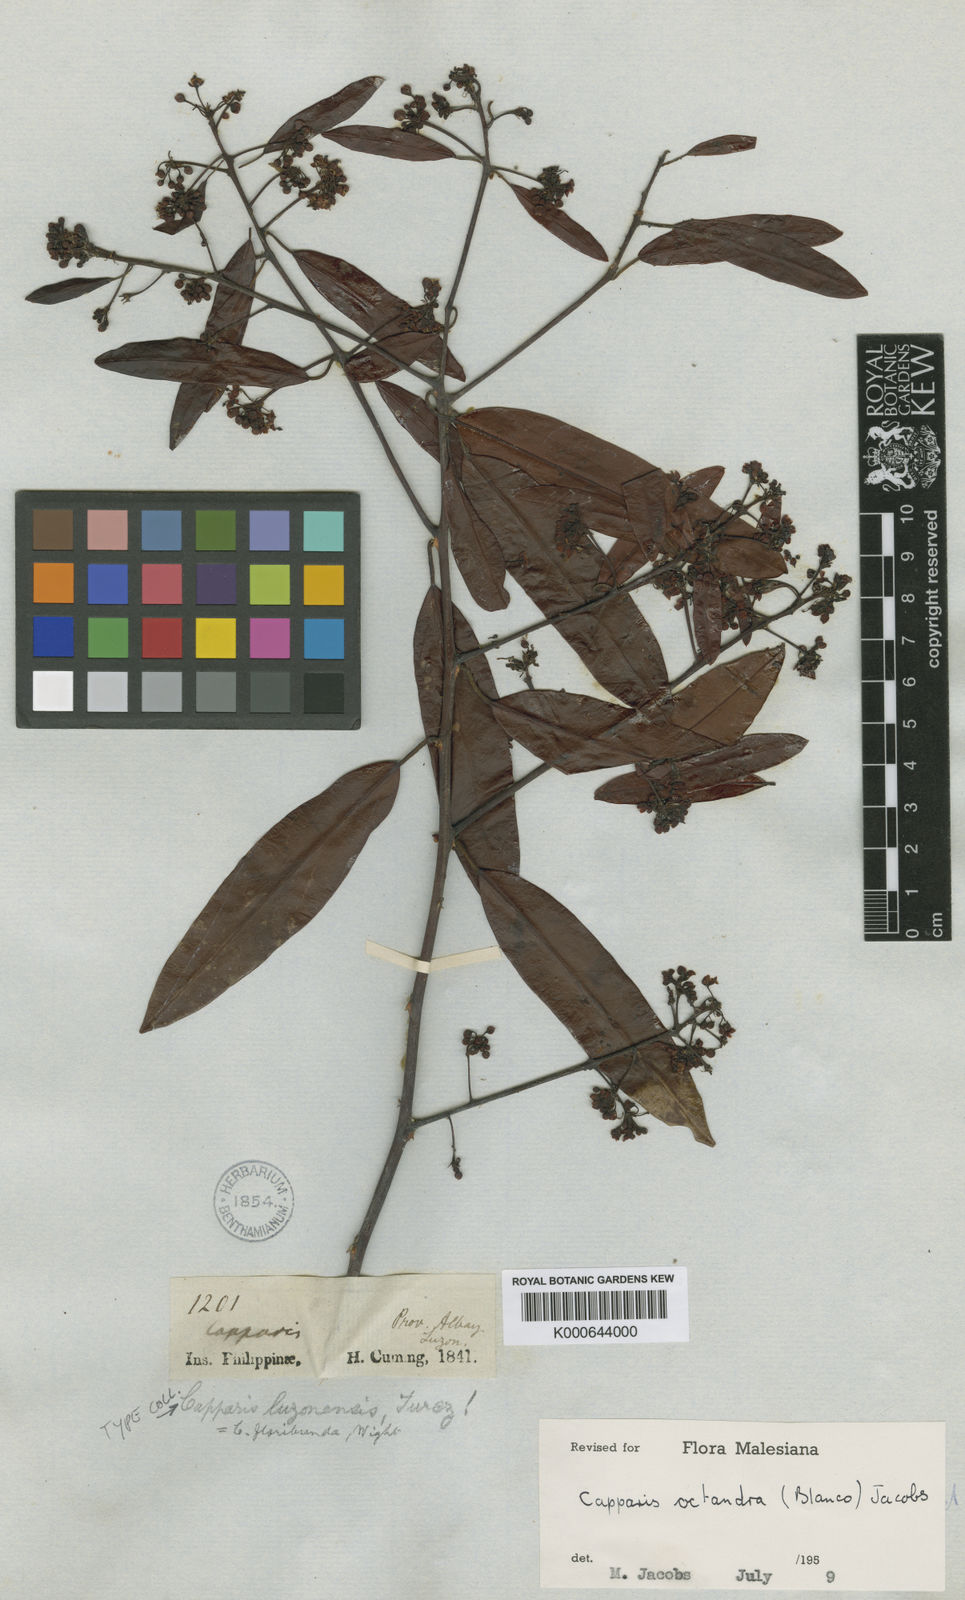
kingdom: Plantae
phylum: Tracheophyta
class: Magnoliopsida
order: Brassicales
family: Capparaceae
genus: Capparis
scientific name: Capparis floribunda
